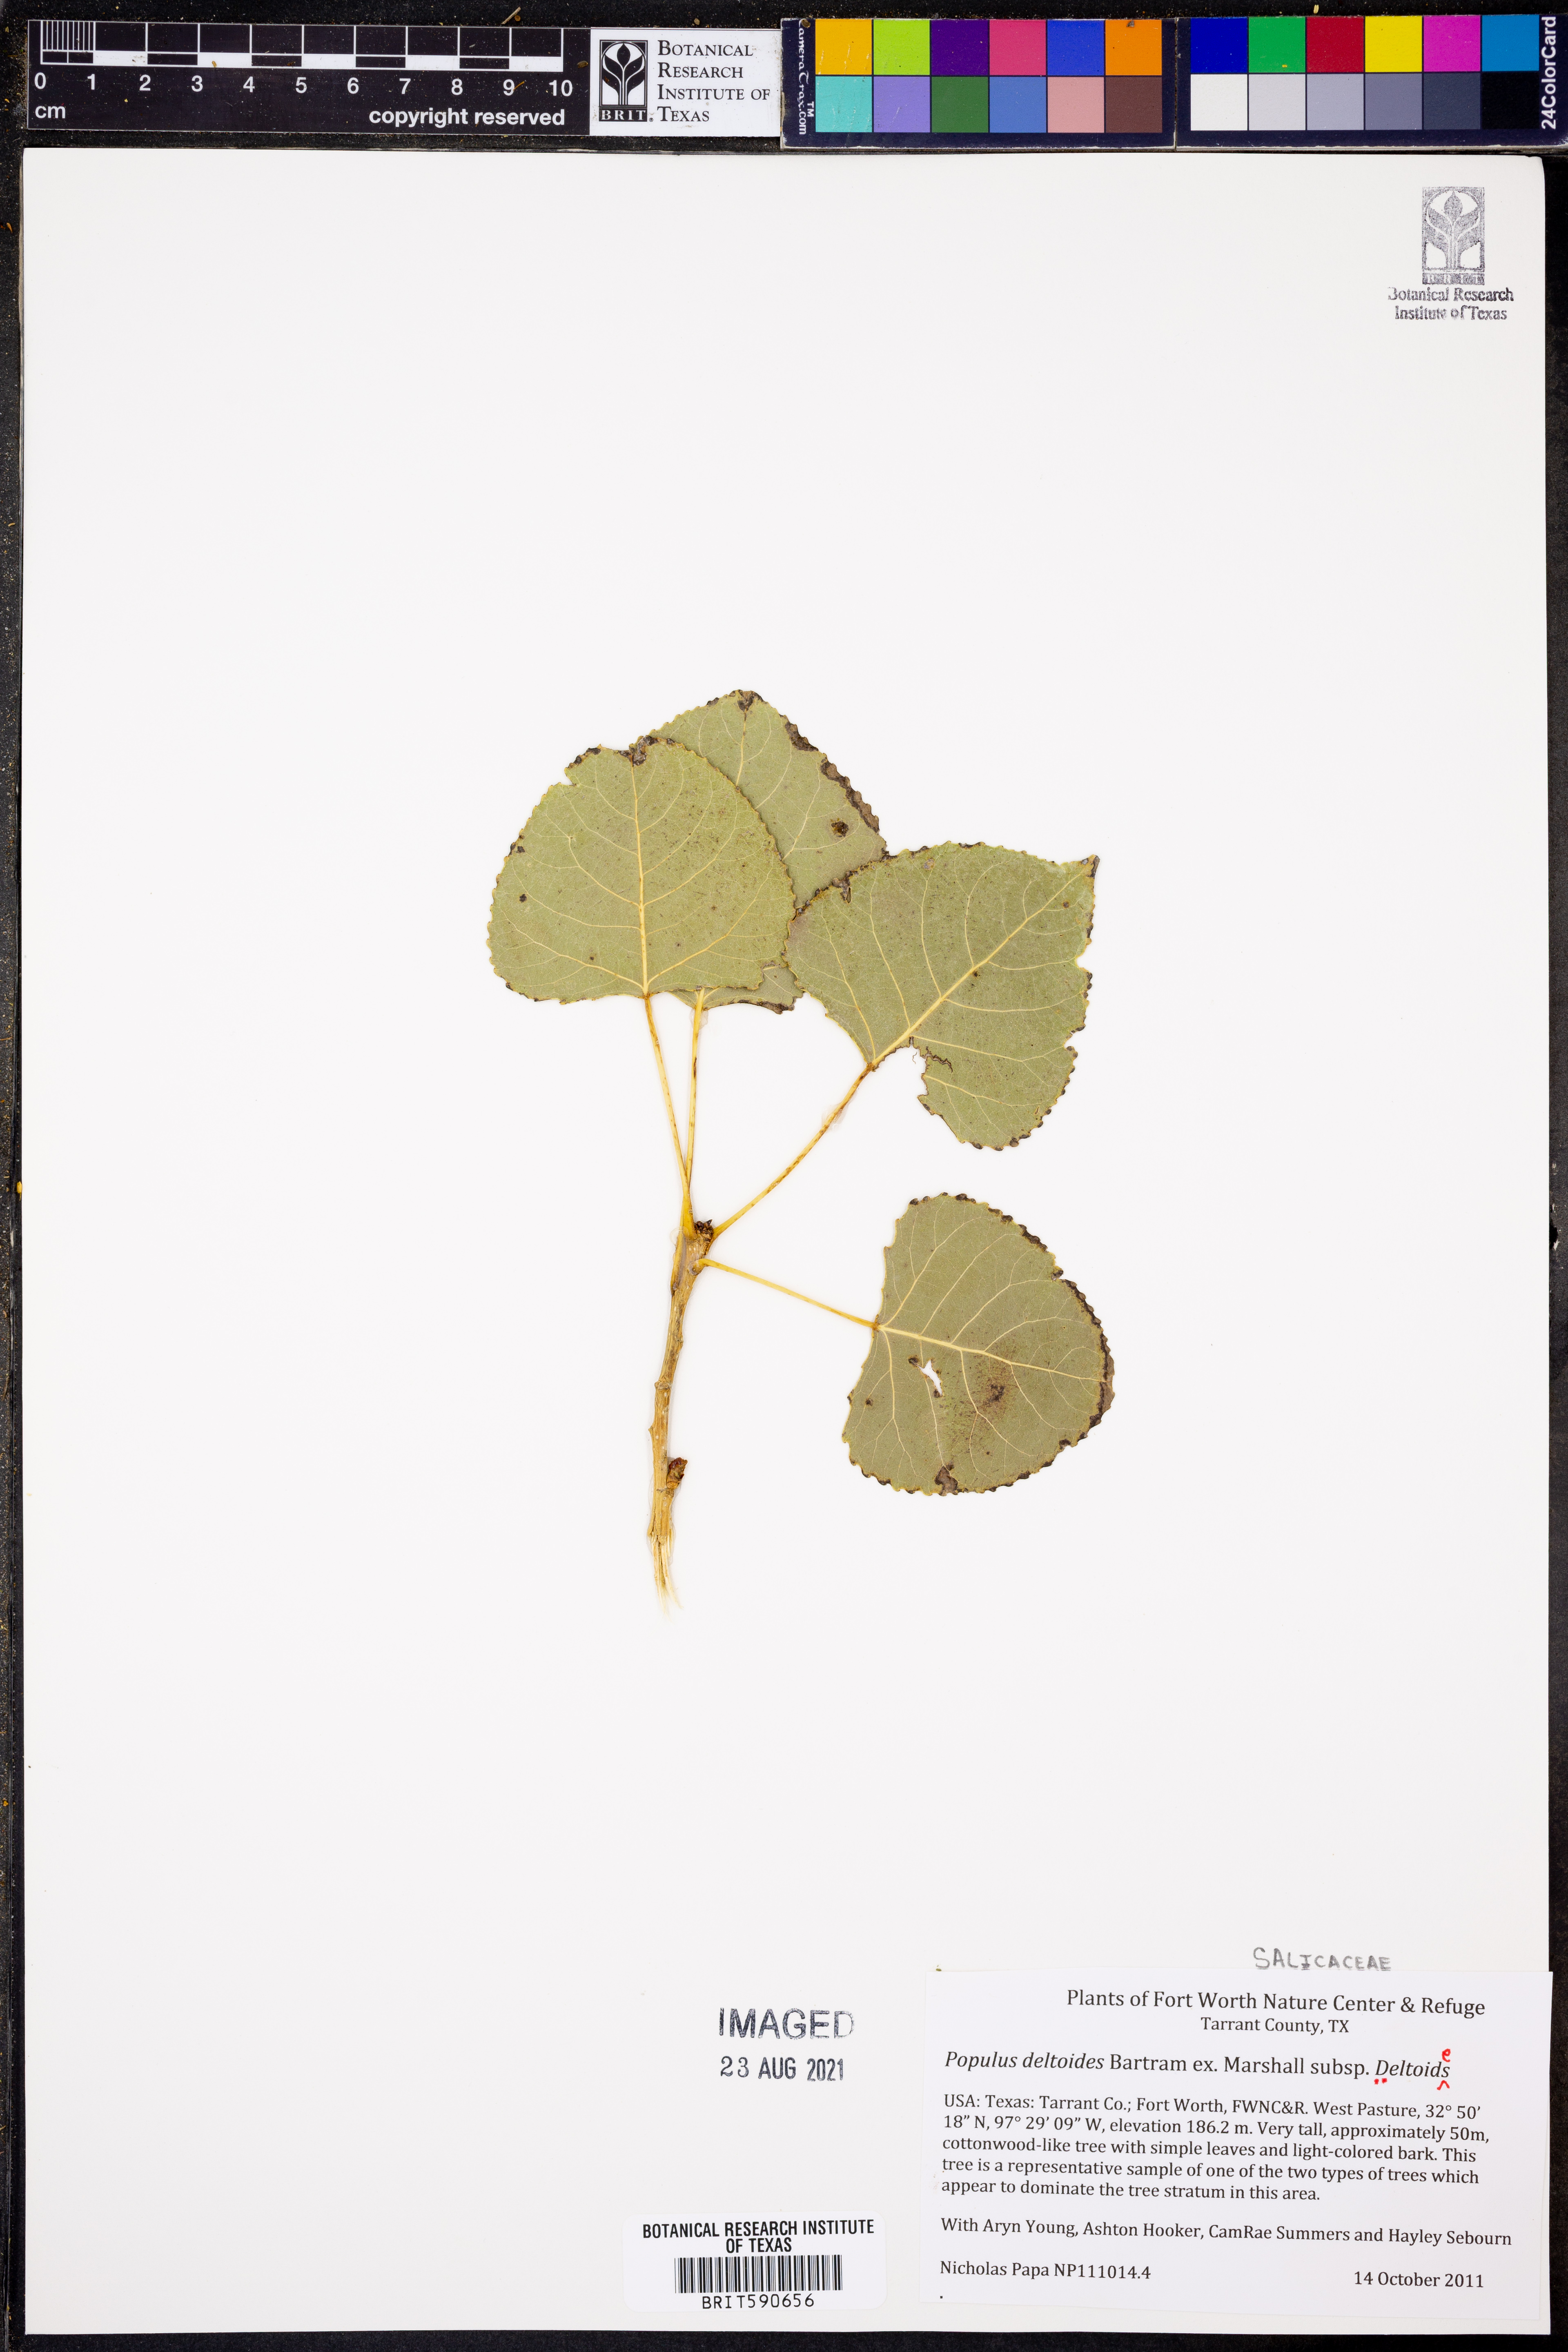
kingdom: Plantae
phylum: Tracheophyta
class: Magnoliopsida
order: Malpighiales
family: Salicaceae
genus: Populus
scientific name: Populus deltoides
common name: Eastern cottonwood
